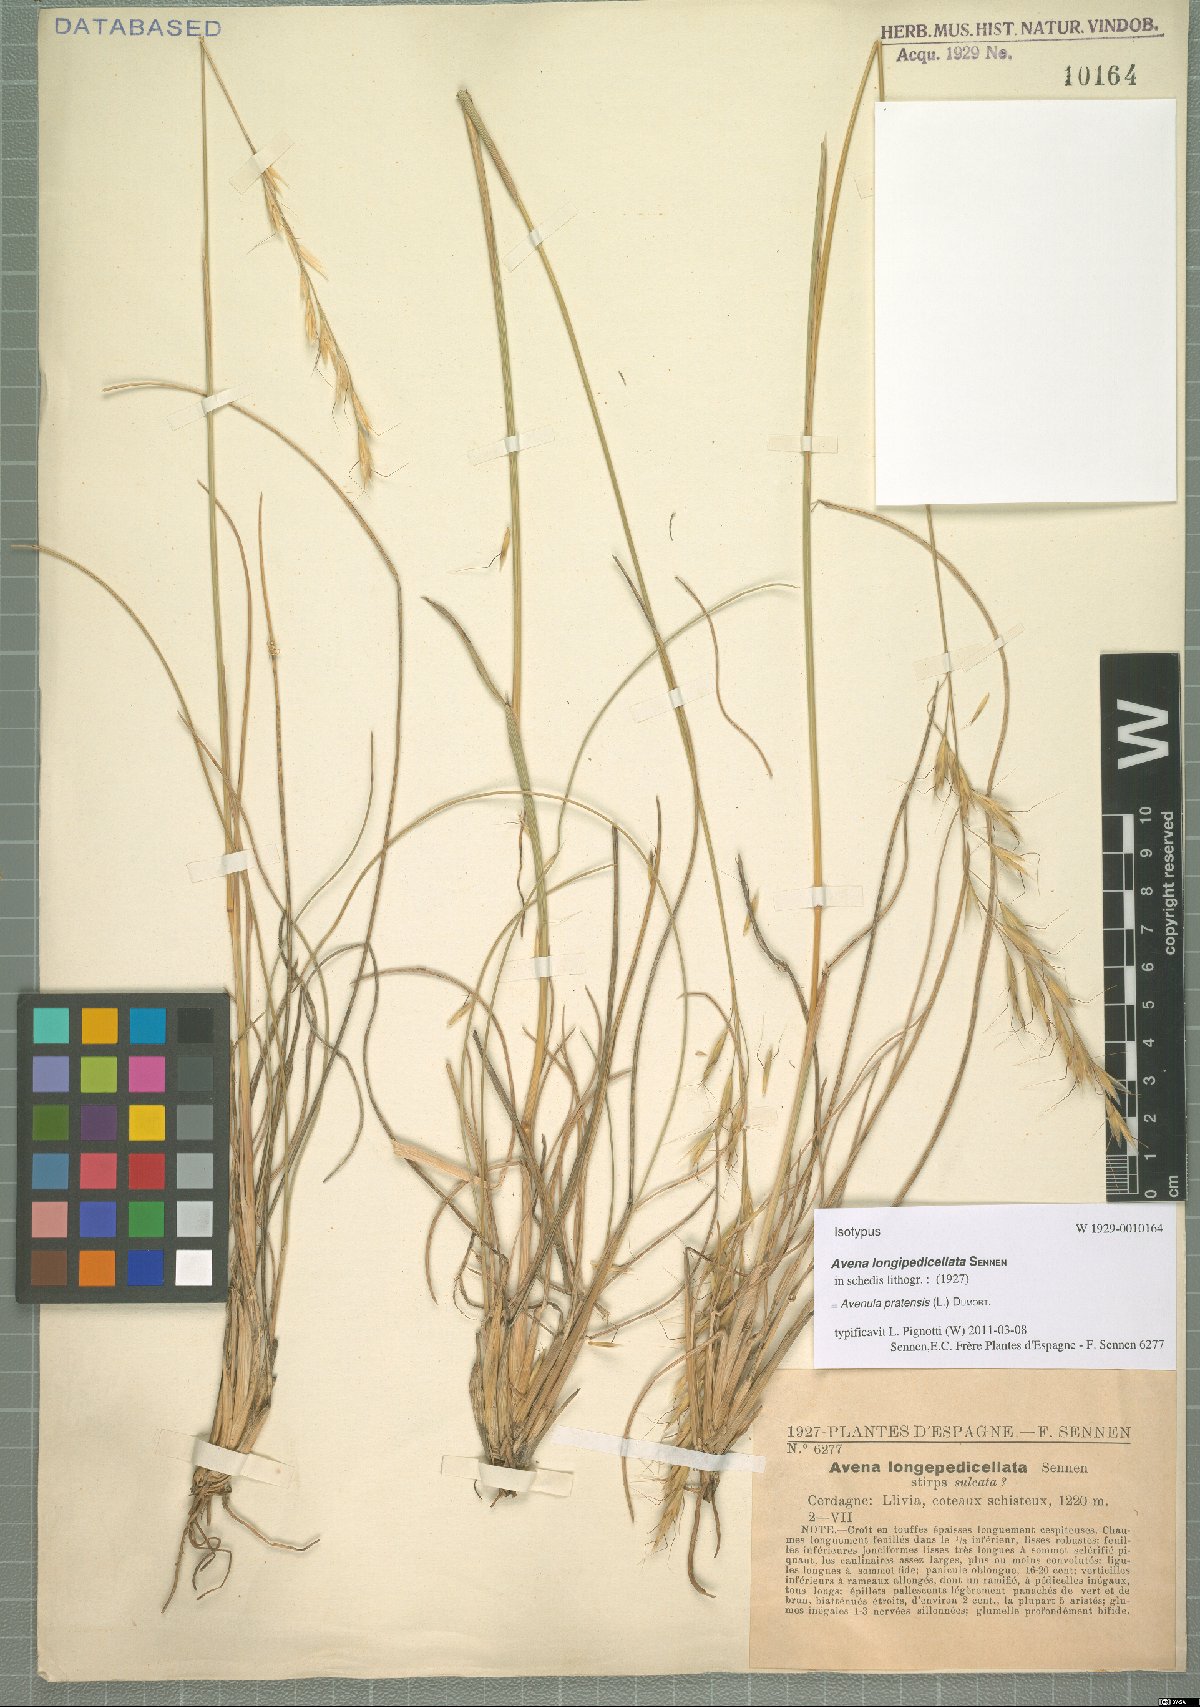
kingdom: Plantae
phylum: Tracheophyta
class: Liliopsida
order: Poales
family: Poaceae
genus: Helictochloa
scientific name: Helictochloa pratensis
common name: Meadow oat grass
